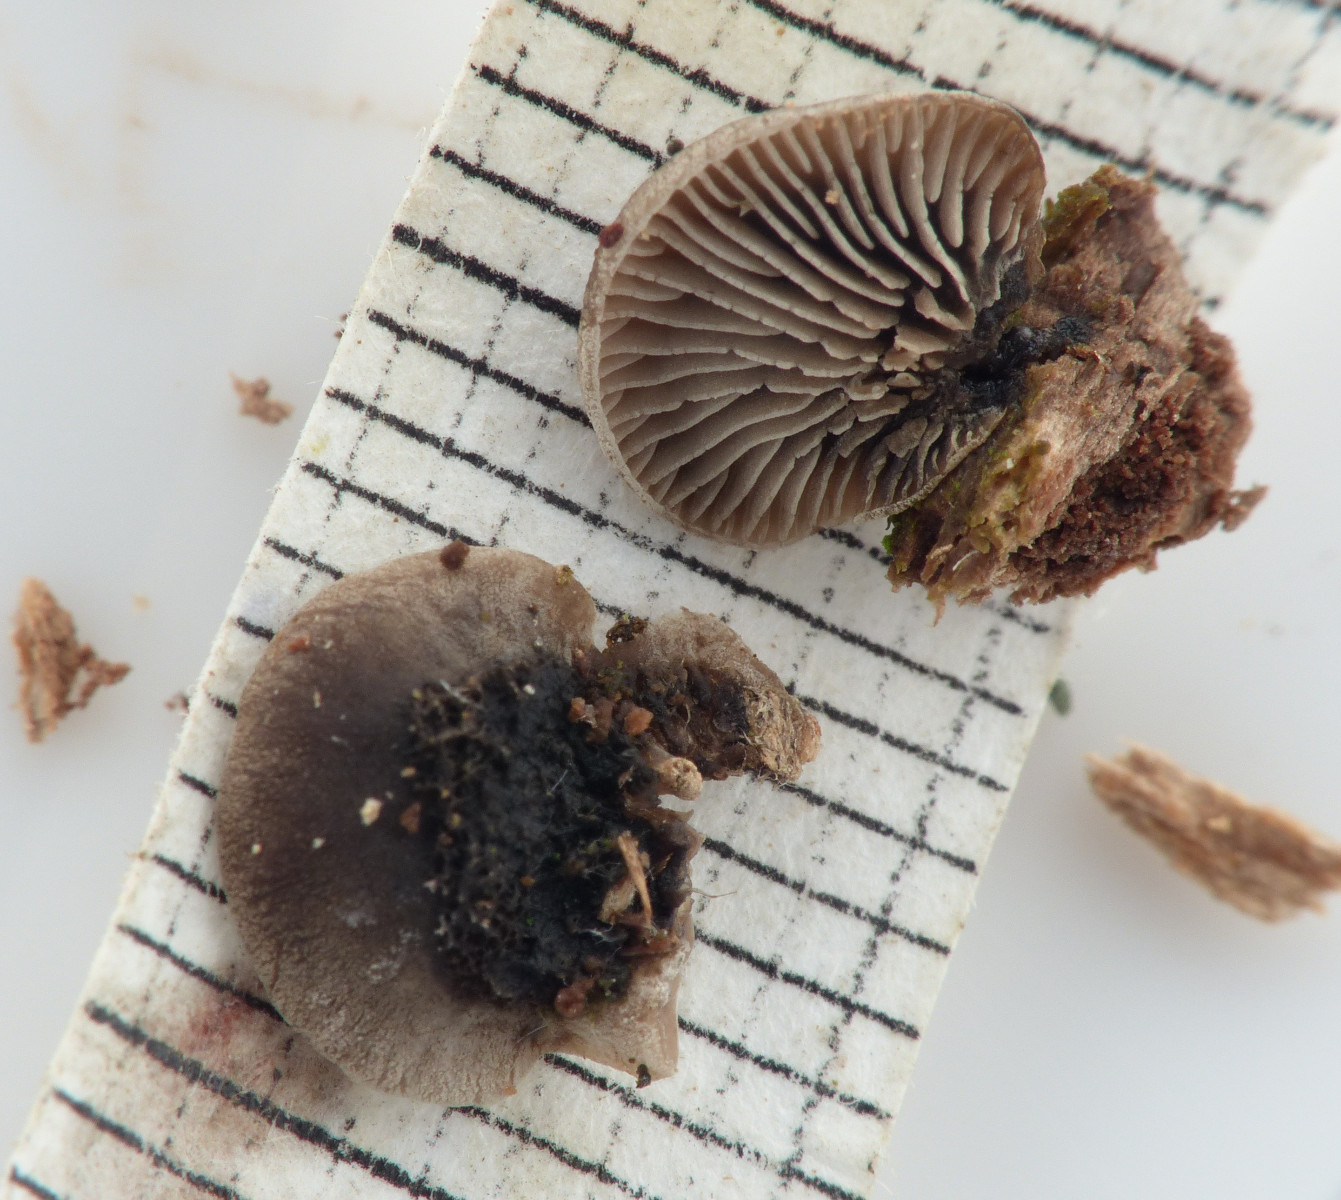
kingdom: Fungi
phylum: Basidiomycota
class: Agaricomycetes
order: Agaricales
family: Pleurotaceae
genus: Resupinatus
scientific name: Resupinatus trichotis
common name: mørkfiltet barkhat
